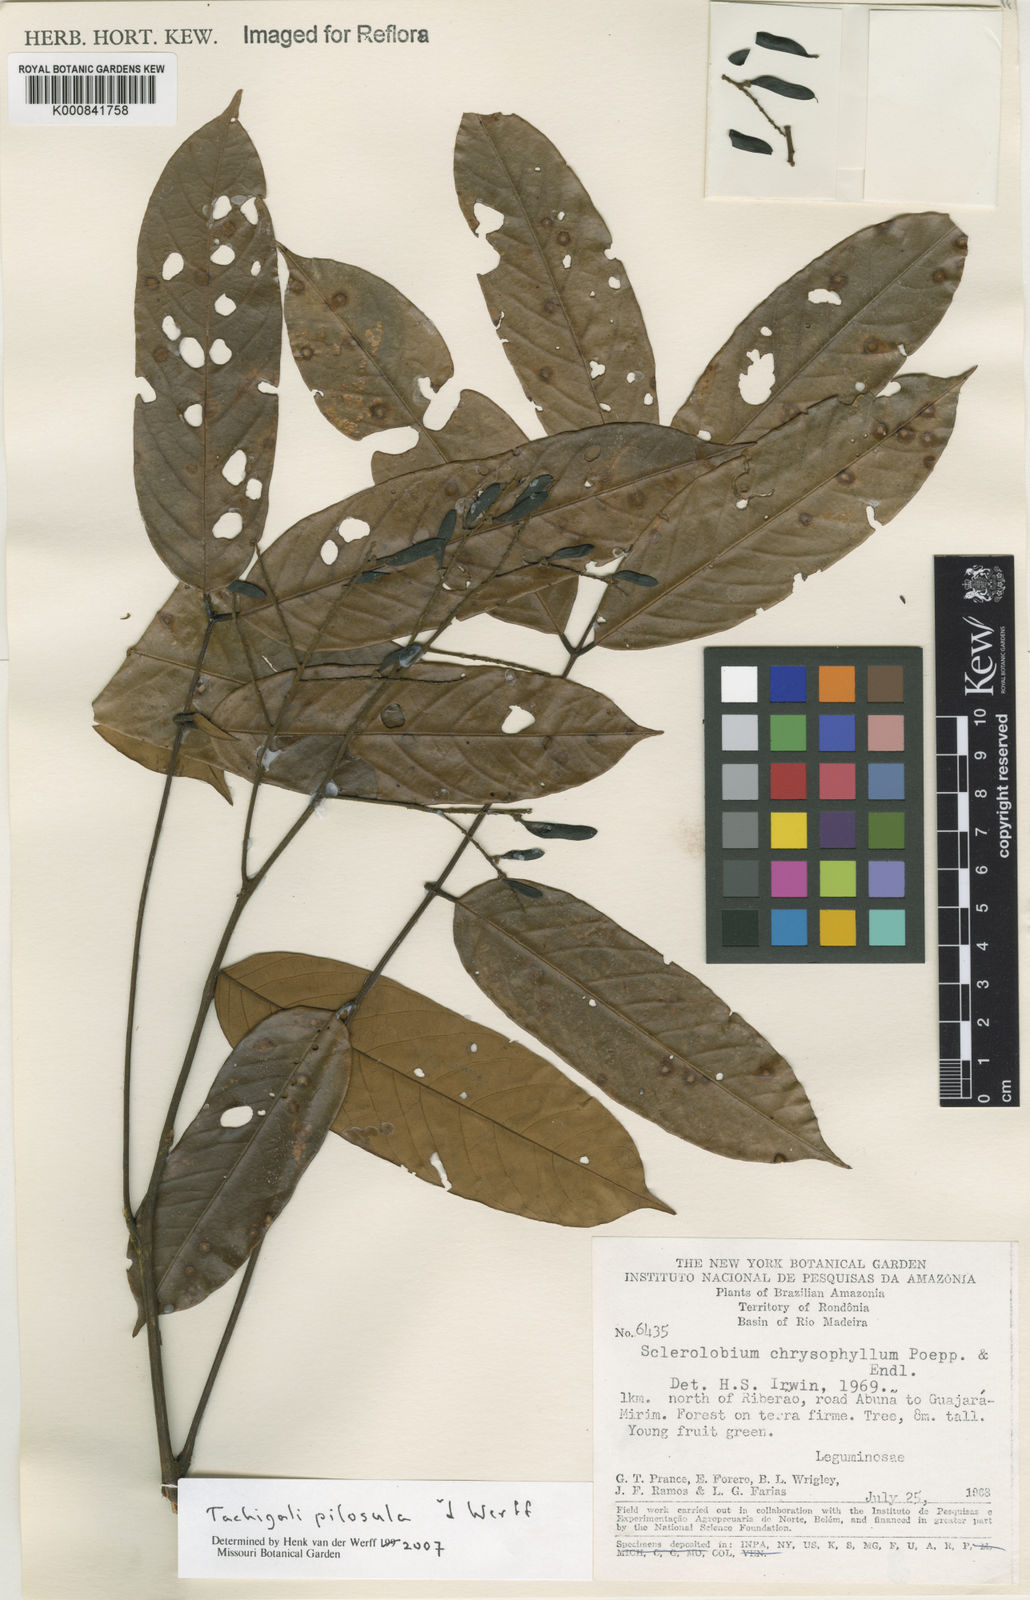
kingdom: Plantae
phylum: Tracheophyta
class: Magnoliopsida
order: Fabales
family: Fabaceae
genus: Tachigali
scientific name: Tachigali
